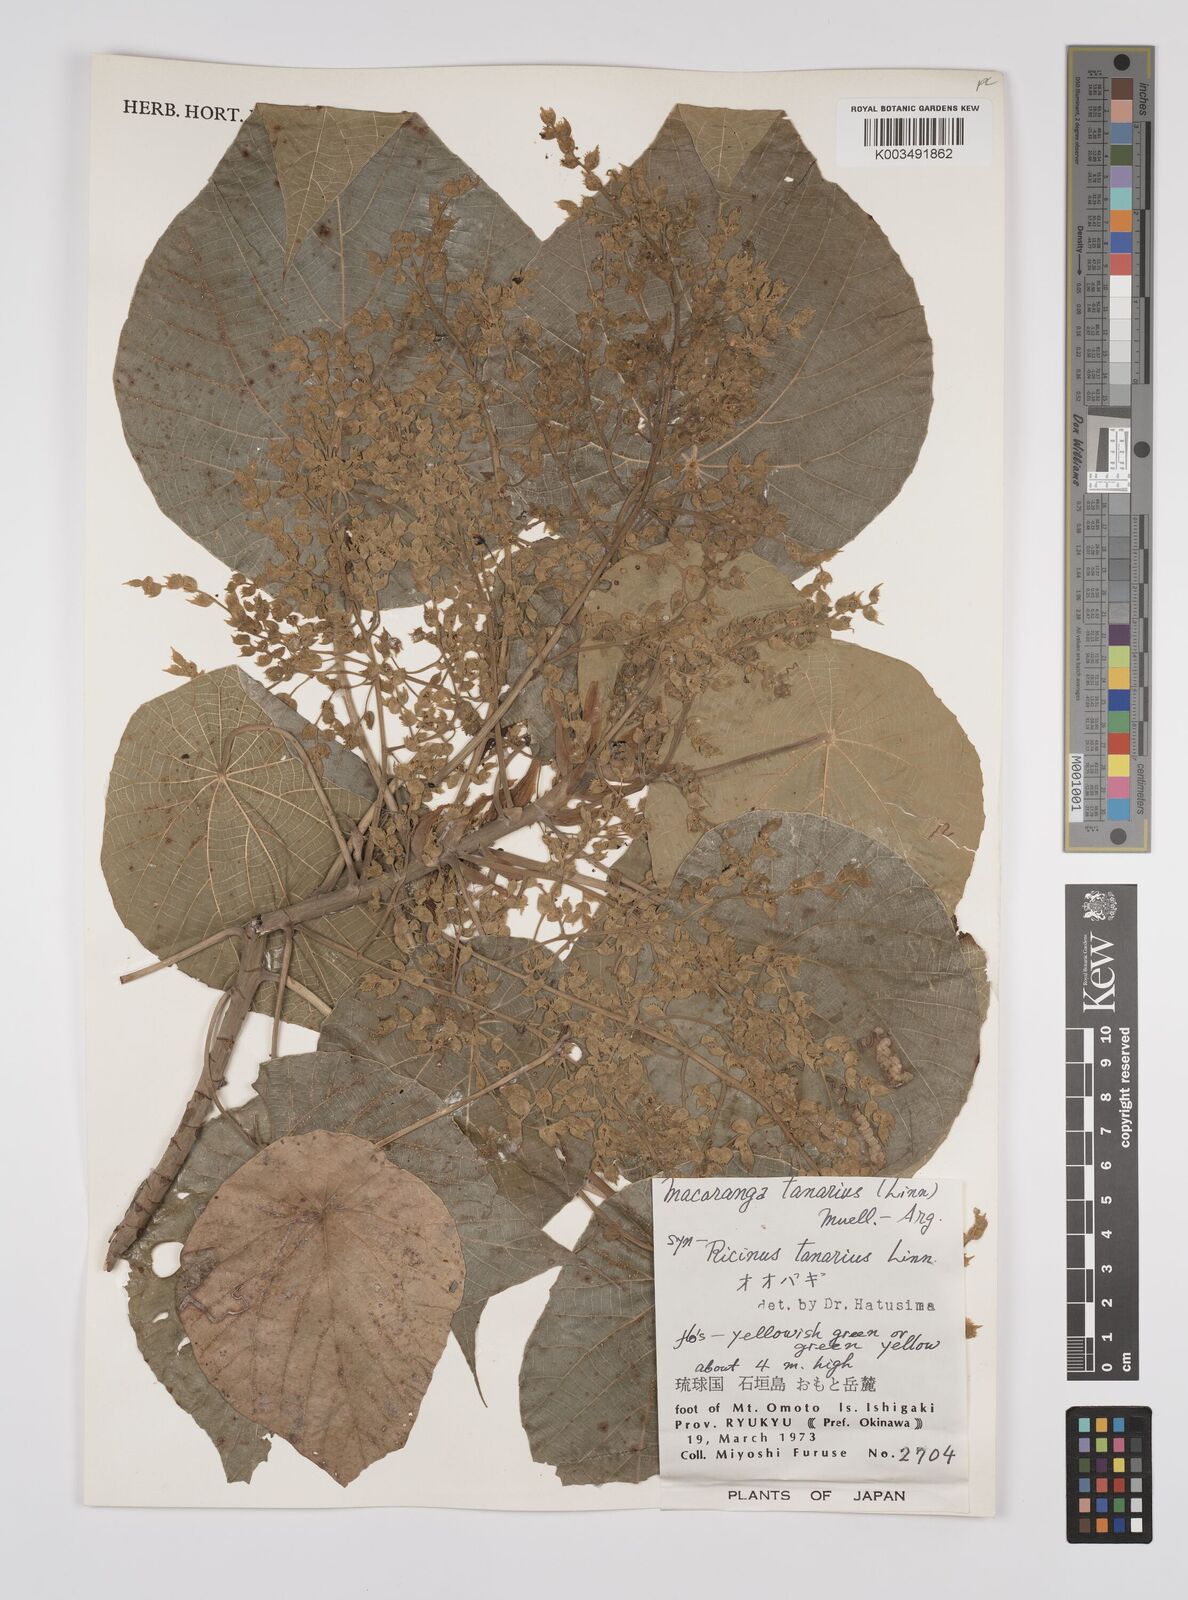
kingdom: Plantae
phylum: Tracheophyta
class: Magnoliopsida
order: Malpighiales
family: Euphorbiaceae
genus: Macaranga
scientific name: Macaranga tanarius
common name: Parasol leaf tree
